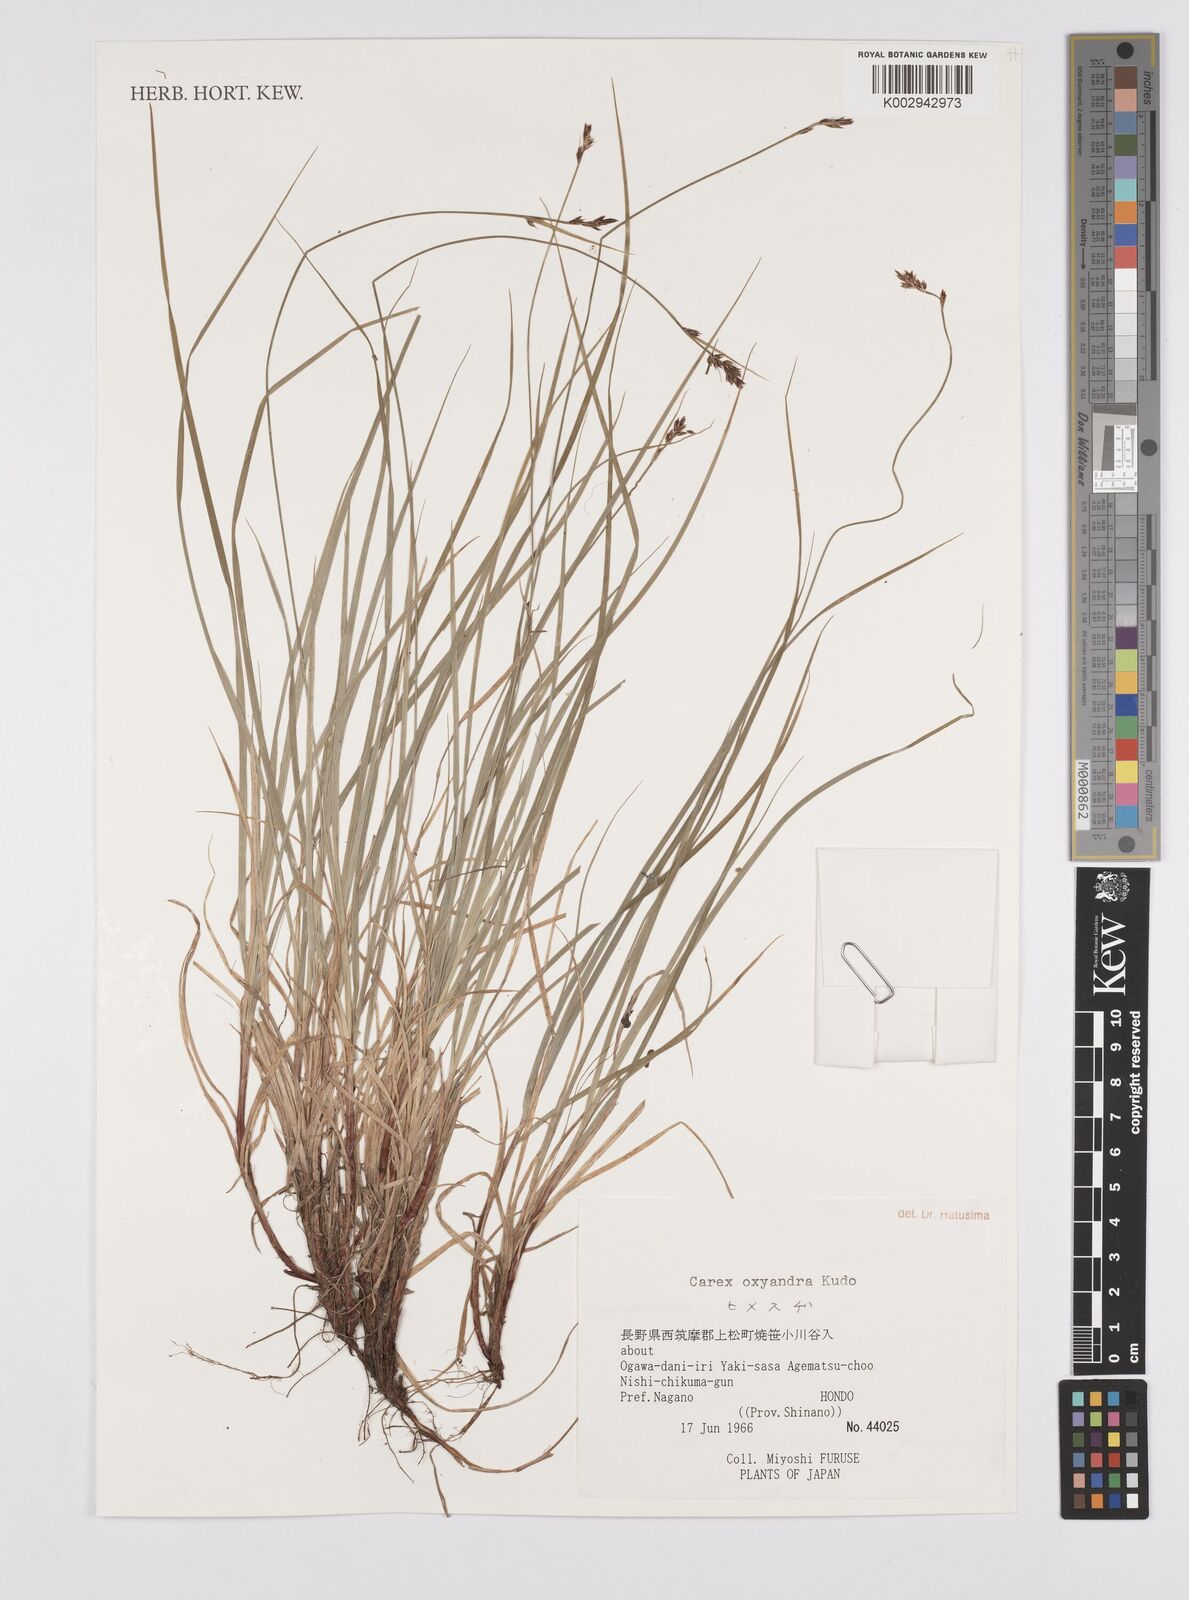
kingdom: Plantae
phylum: Tracheophyta
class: Liliopsida
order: Poales
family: Cyperaceae
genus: Carex
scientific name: Carex oxyandra
